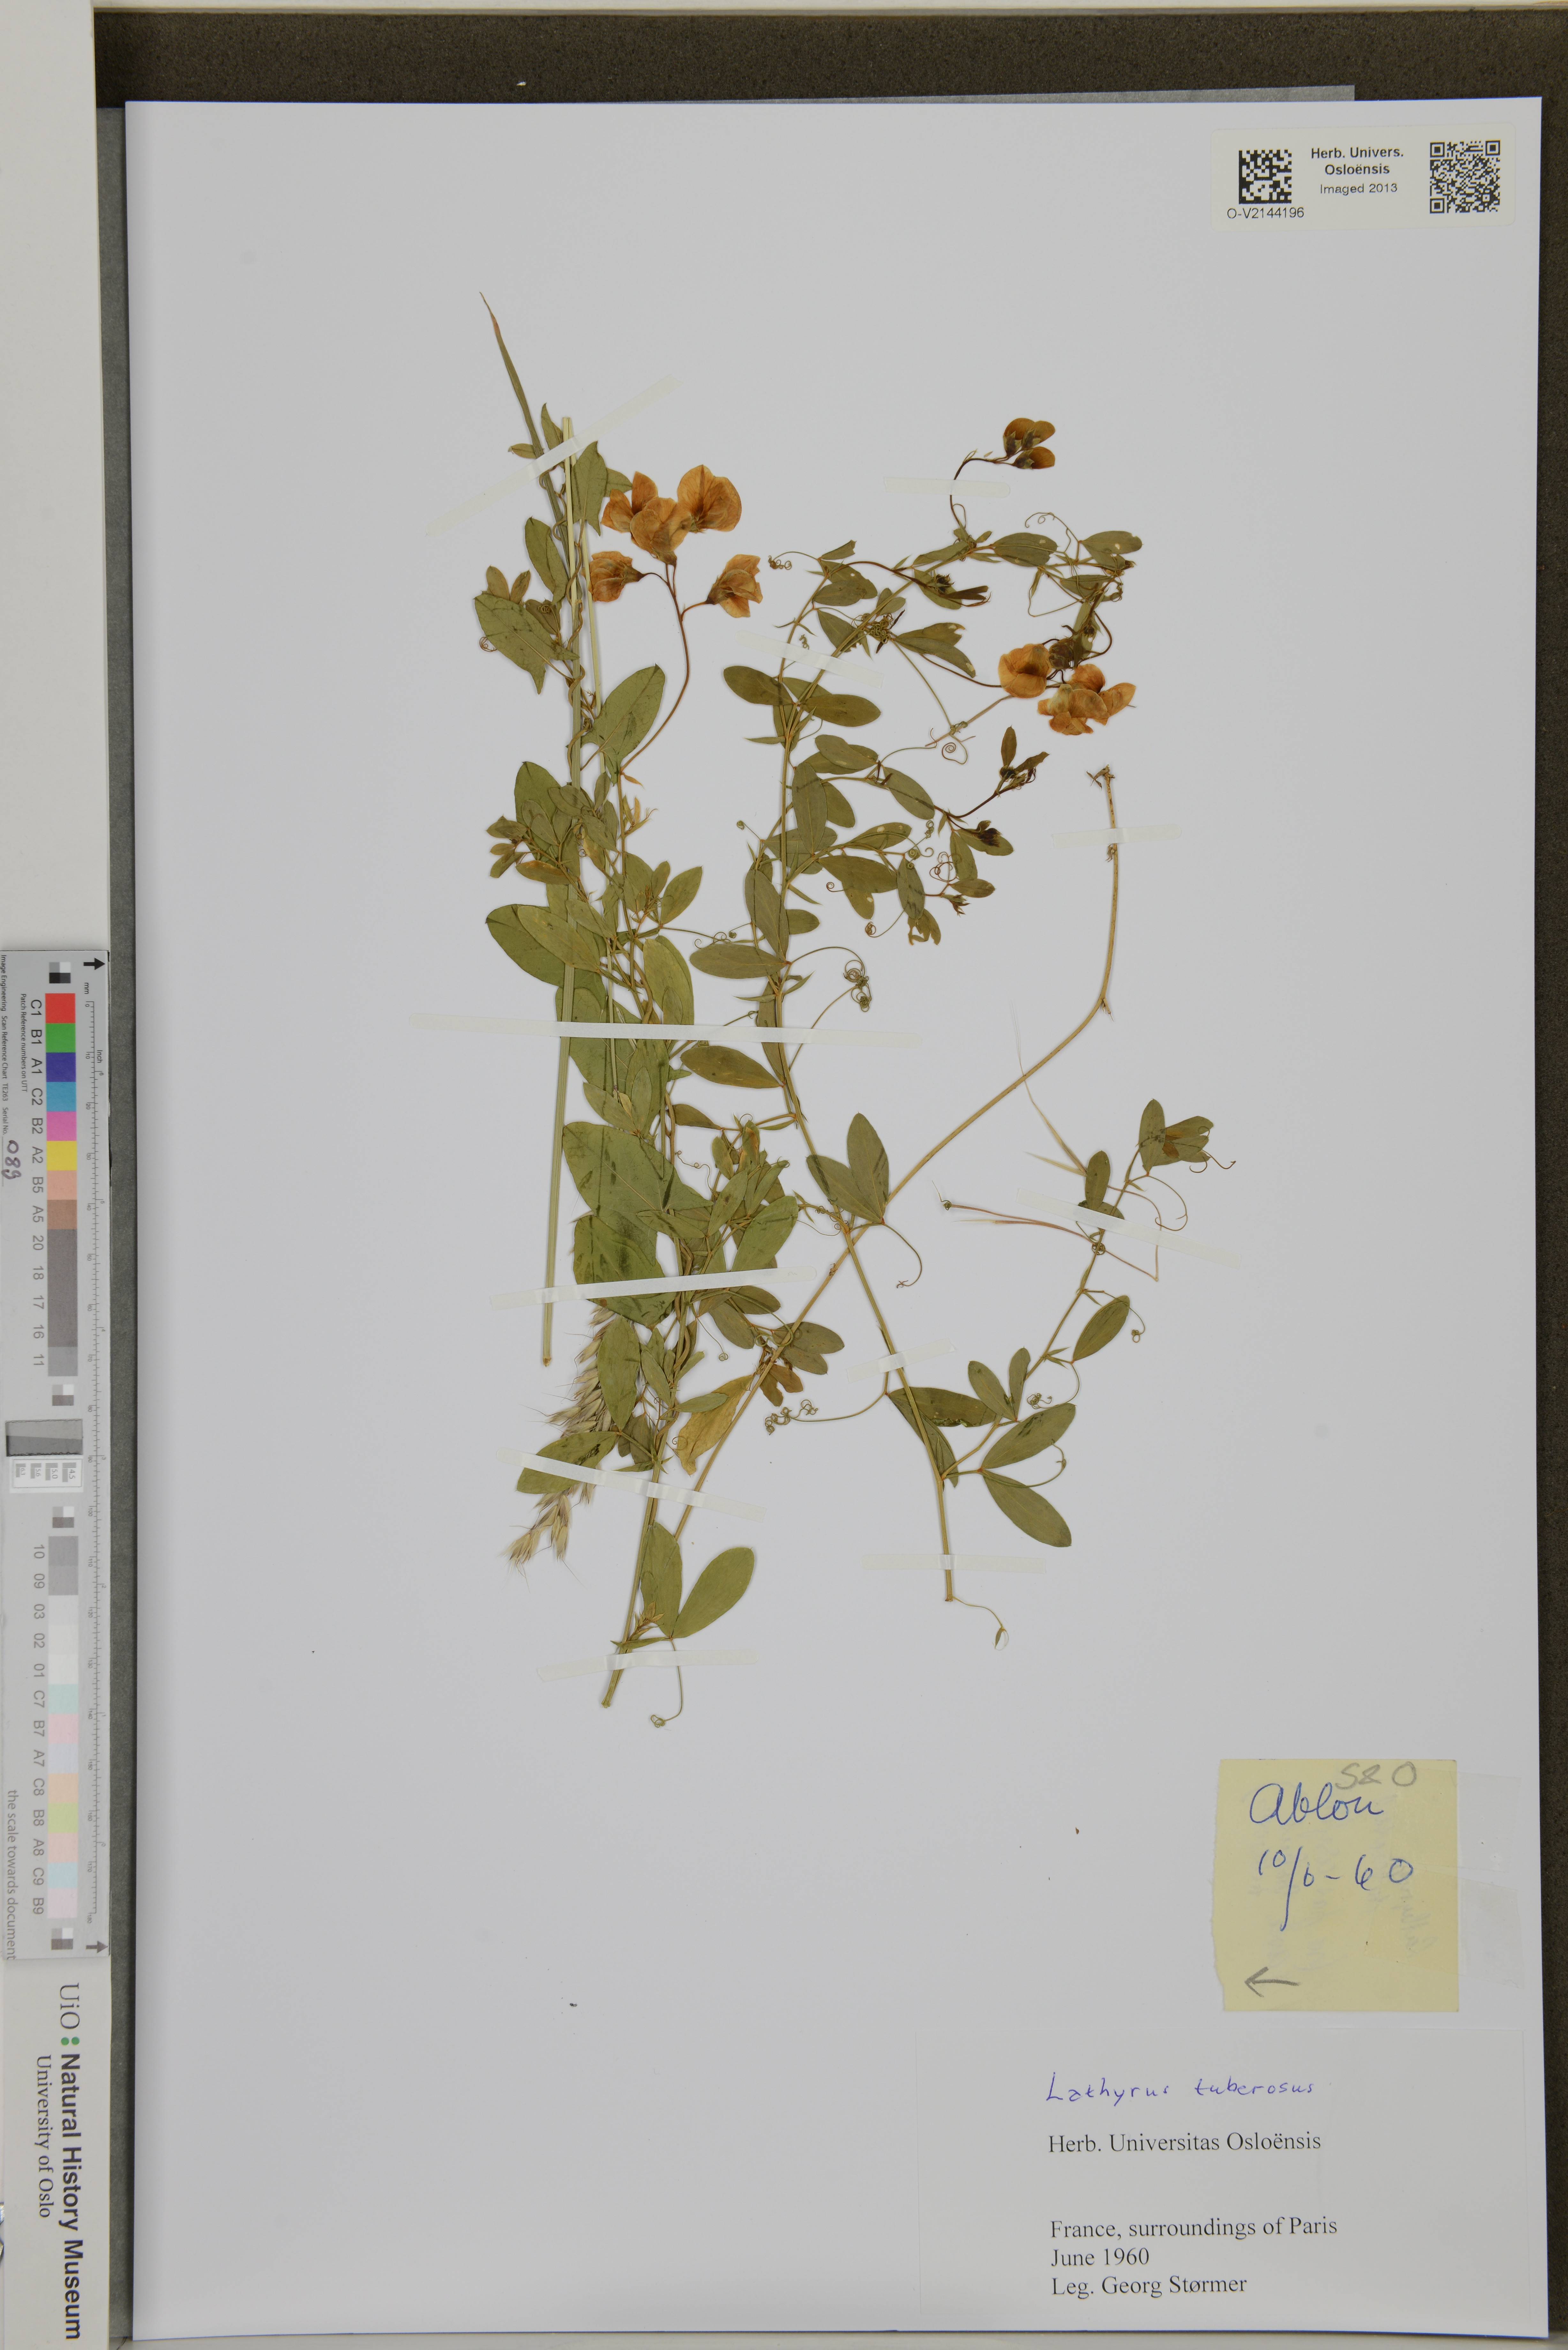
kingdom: Plantae
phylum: Tracheophyta
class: Magnoliopsida
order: Fabales
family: Fabaceae
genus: Lathyrus
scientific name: Lathyrus tuberosus
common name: Tuberous pea
